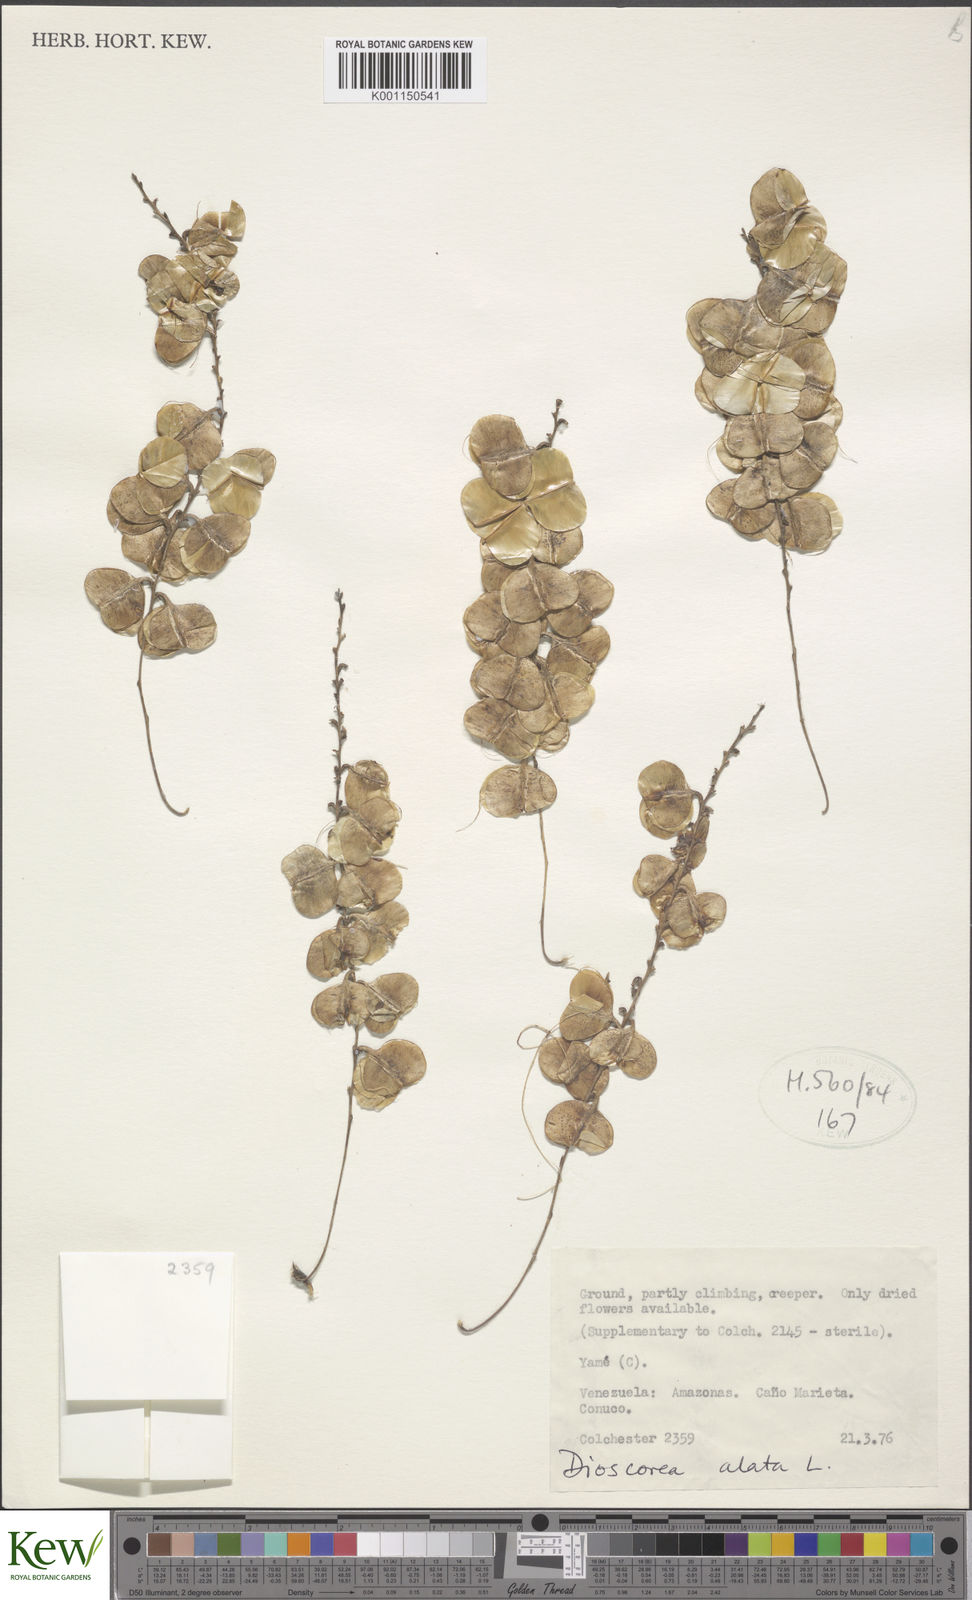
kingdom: Plantae
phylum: Tracheophyta
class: Liliopsida
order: Dioscoreales
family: Dioscoreaceae
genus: Dioscorea
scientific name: Dioscorea alata
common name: Water yam
